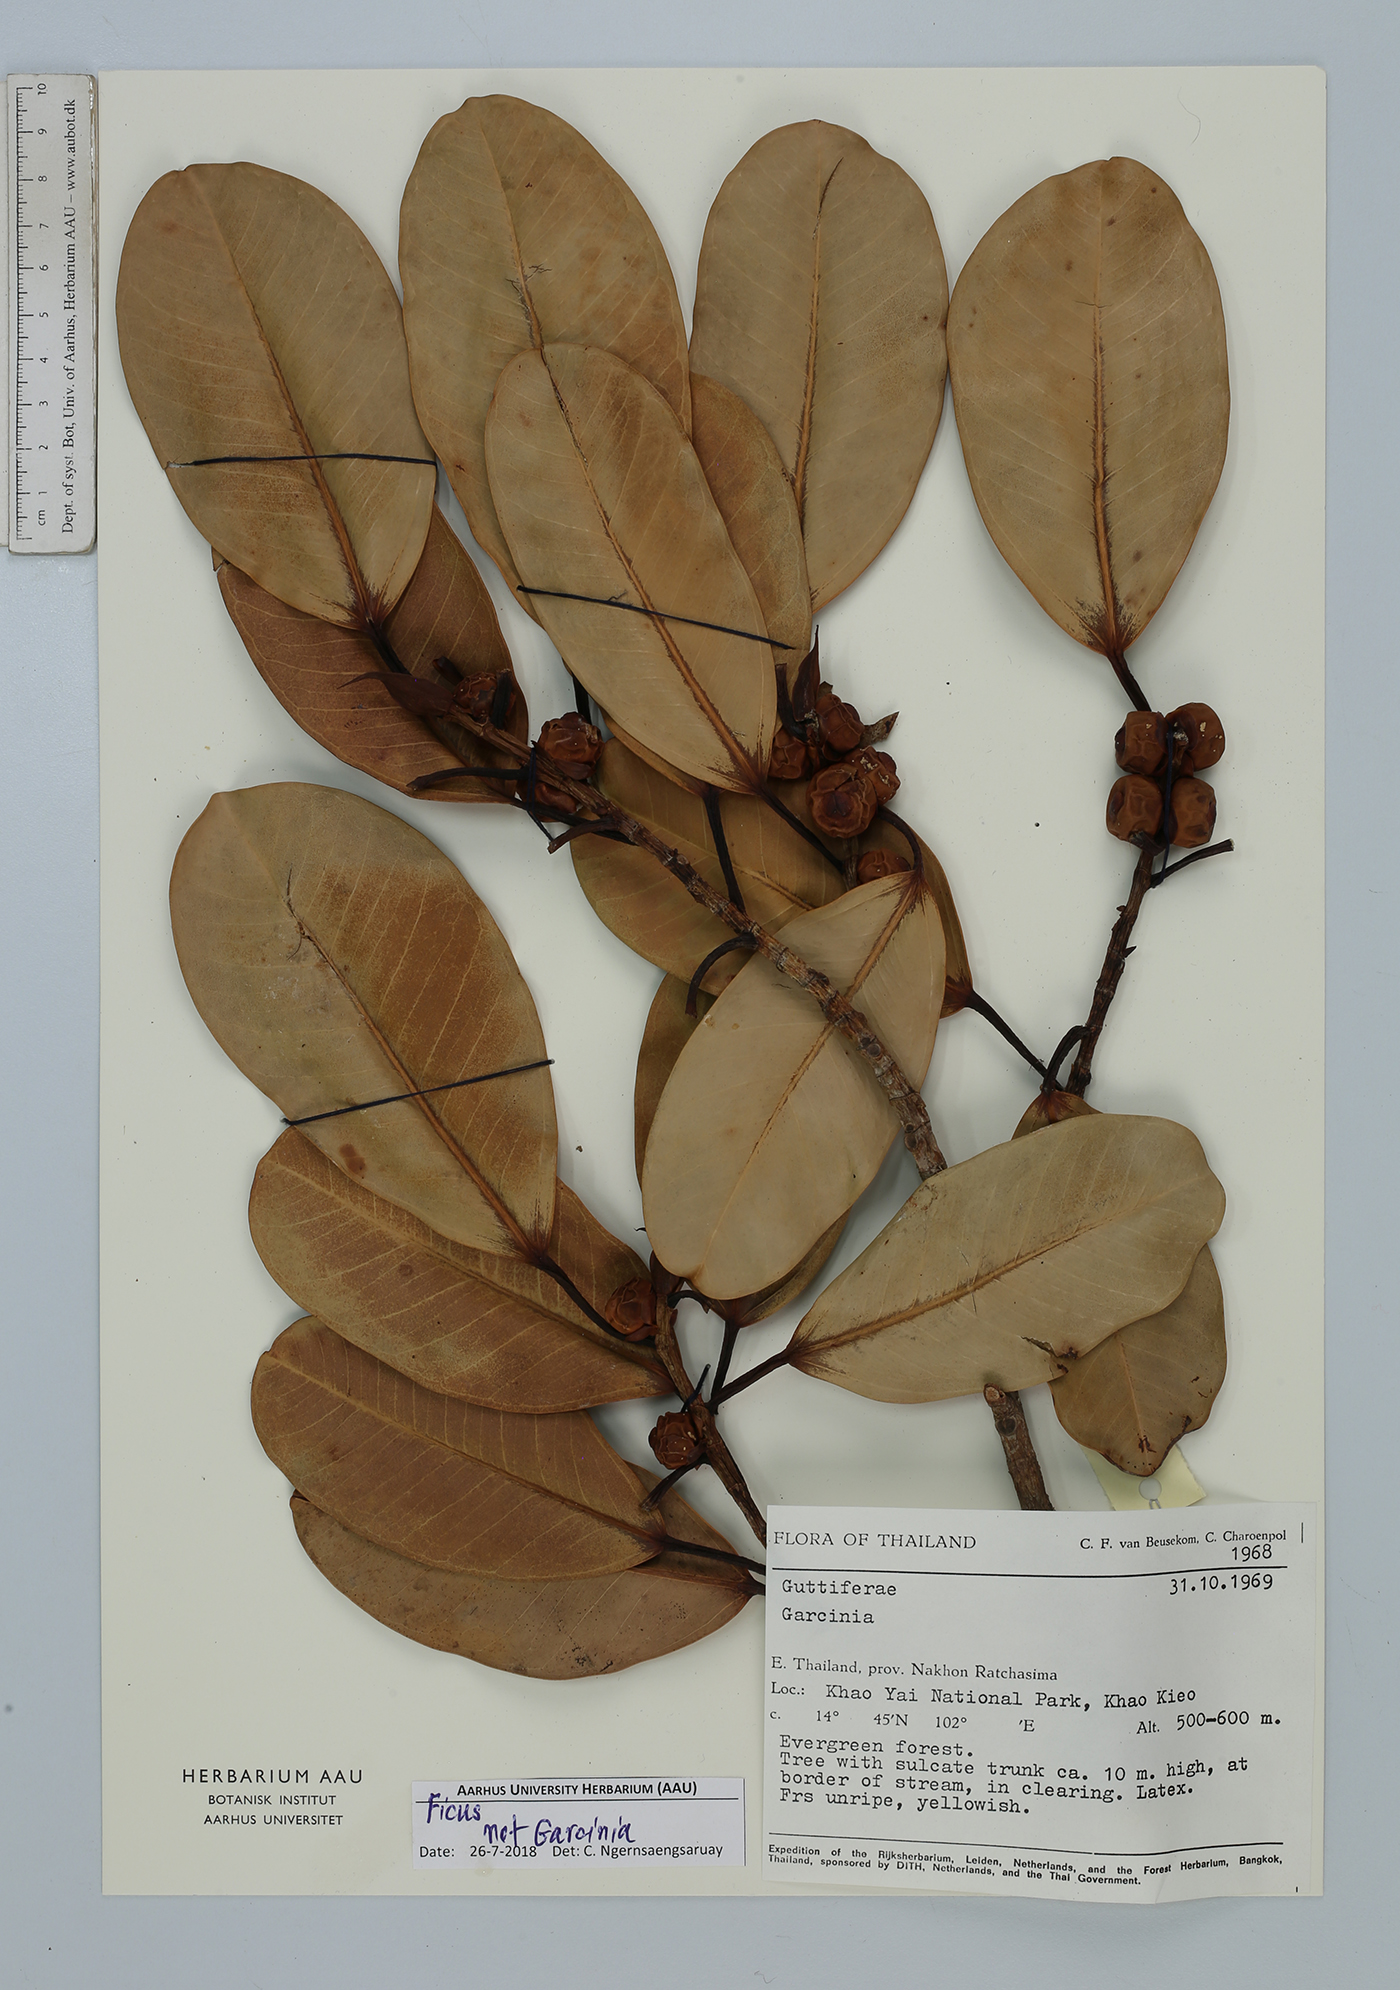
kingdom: Plantae
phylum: Tracheophyta
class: Magnoliopsida
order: Rosales
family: Moraceae
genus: Ficus
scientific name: Ficus
